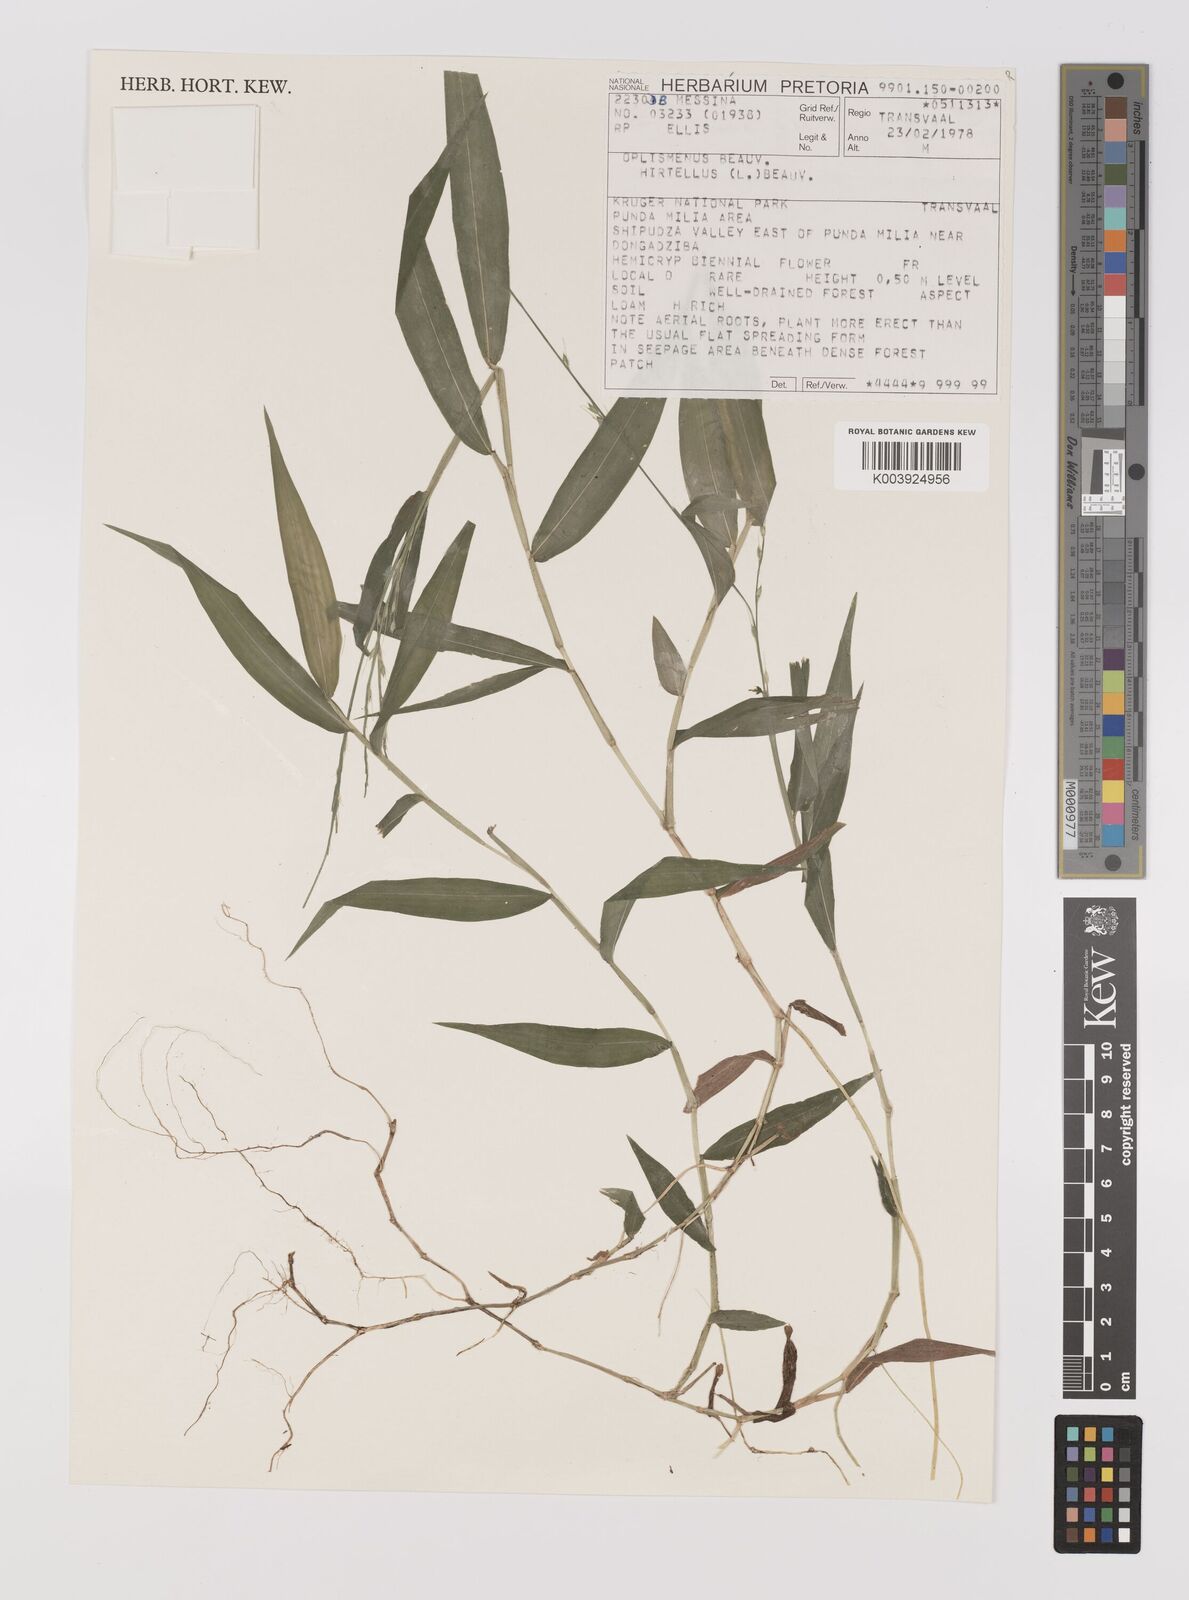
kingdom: Plantae
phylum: Tracheophyta
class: Liliopsida
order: Poales
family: Poaceae
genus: Oplismenus
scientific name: Oplismenus hirtellus
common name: Basketgrass
